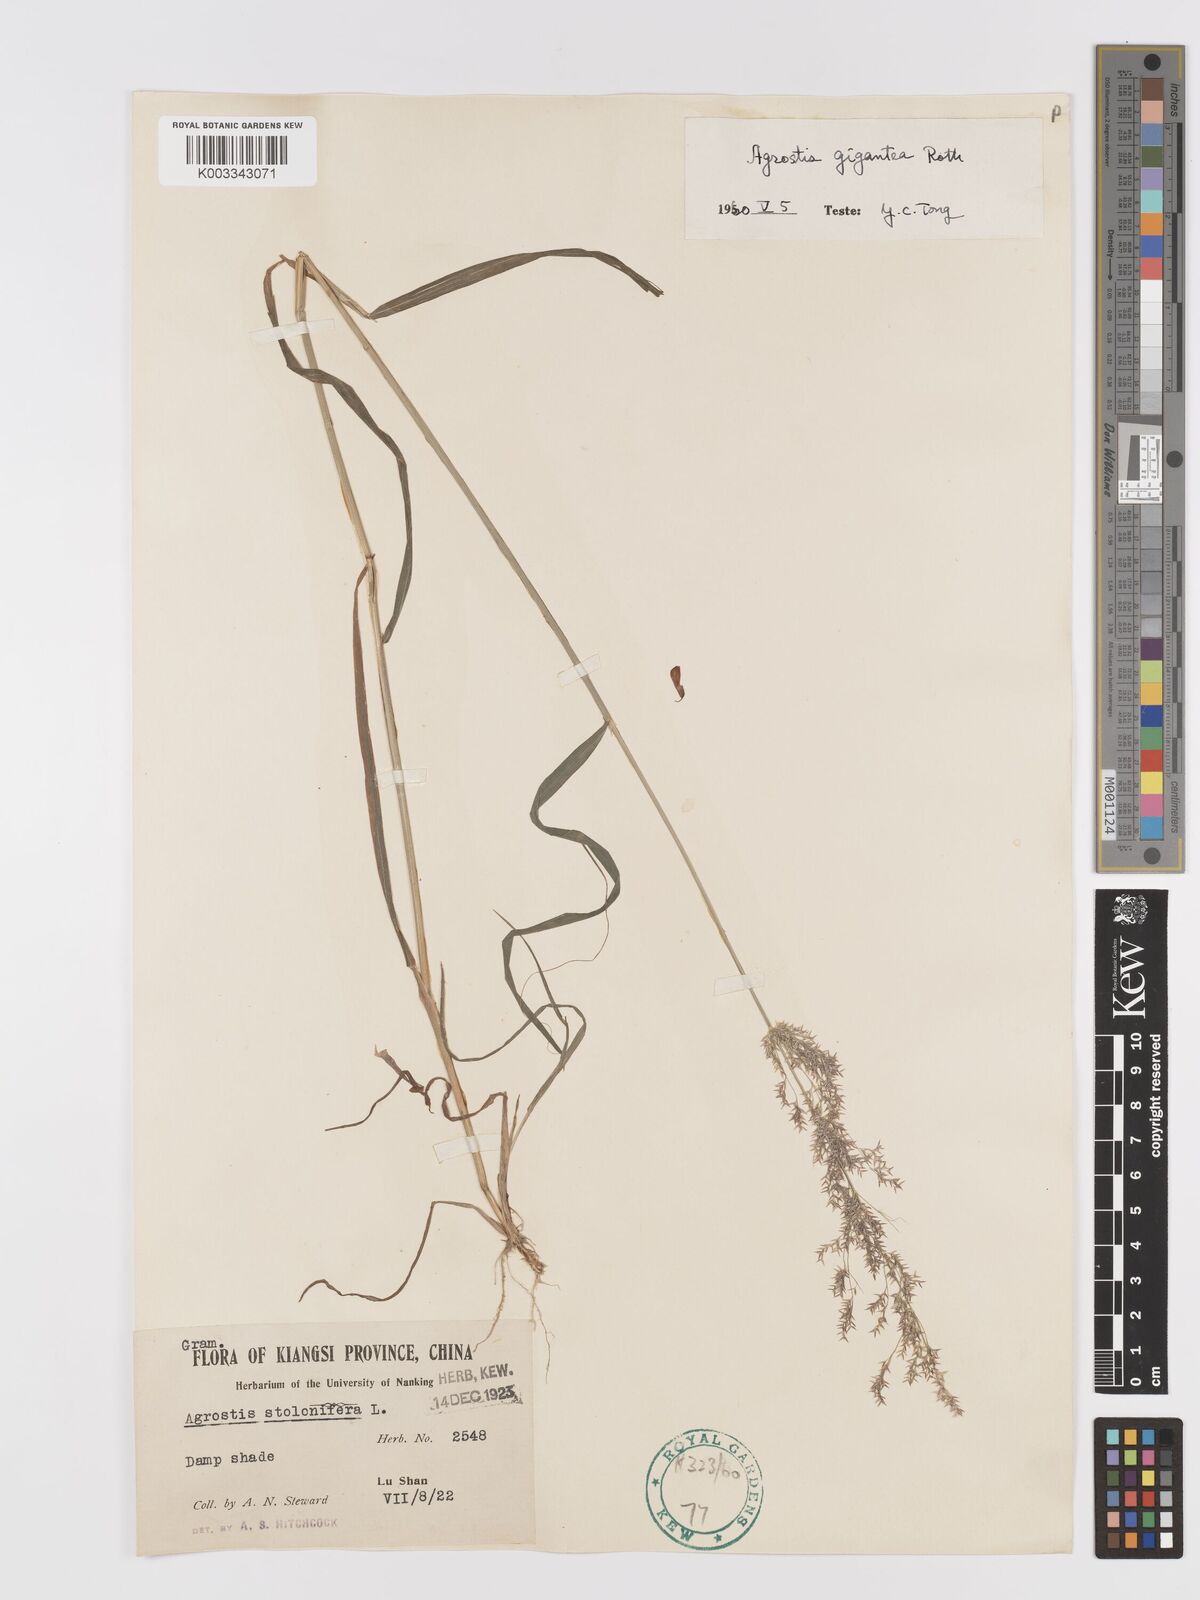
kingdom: Plantae
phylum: Tracheophyta
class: Liliopsida
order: Poales
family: Poaceae
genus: Agrostis
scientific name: Agrostis gigantea
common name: Black bent
